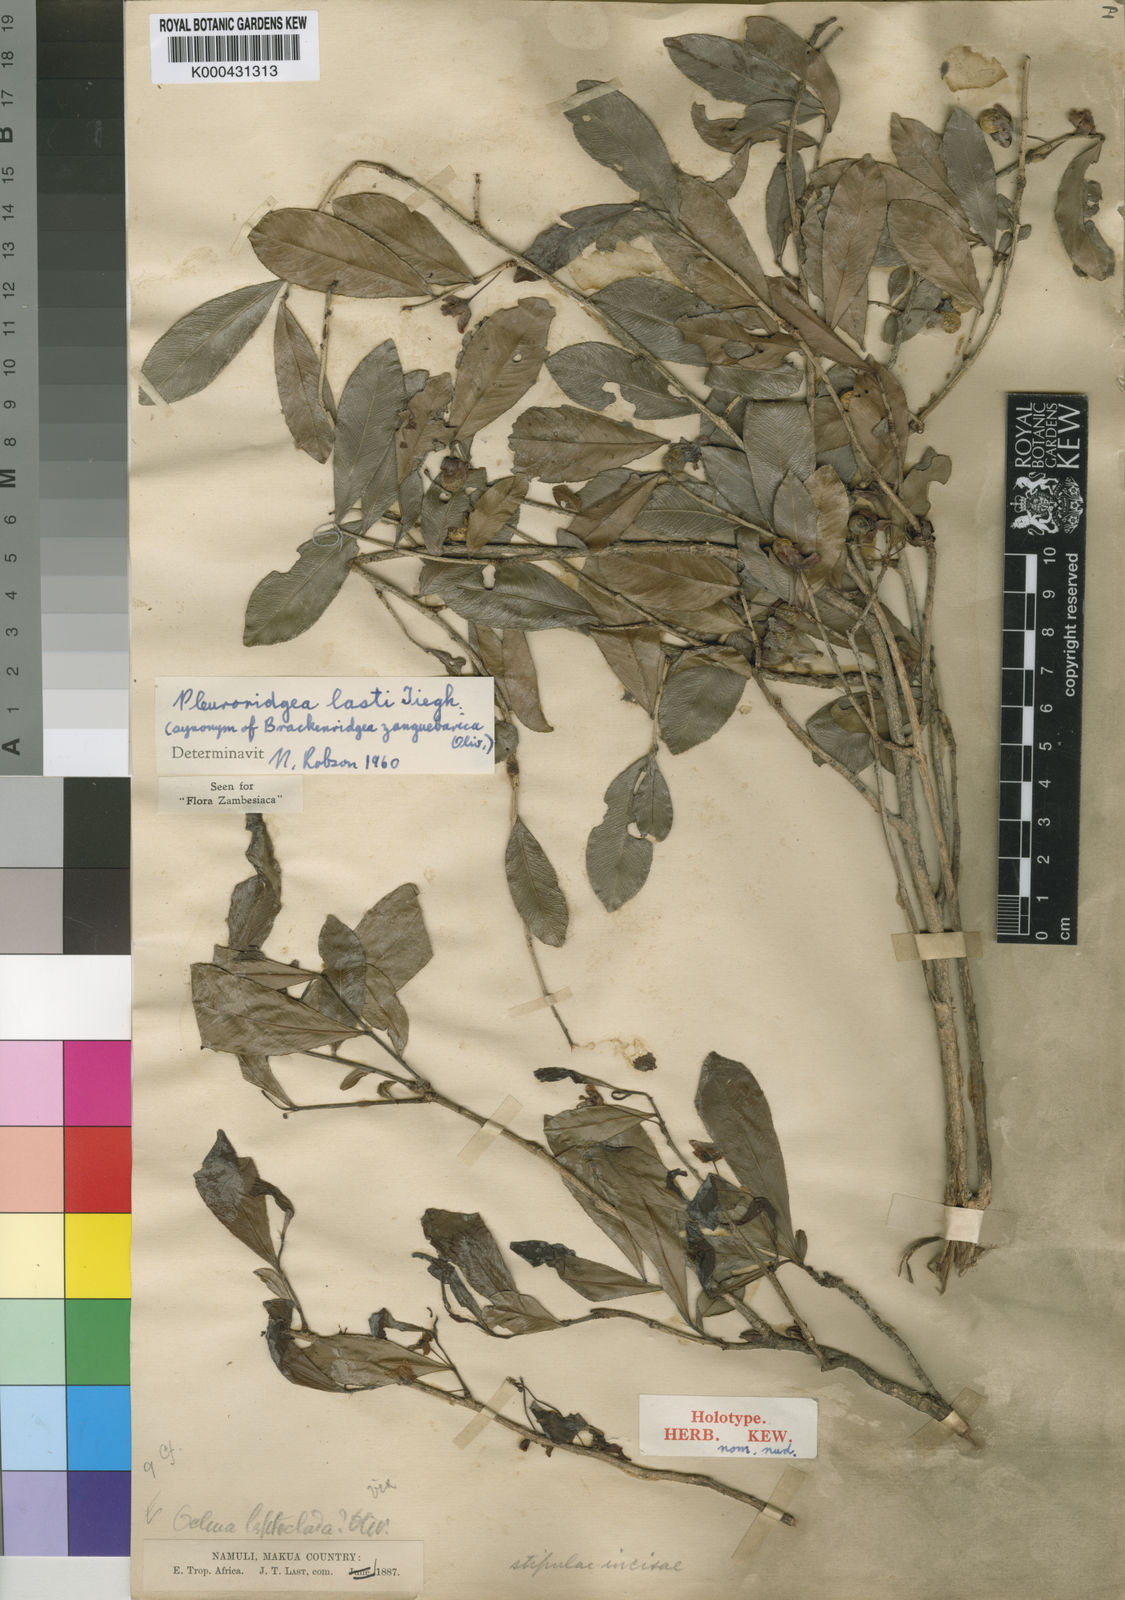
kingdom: Plantae
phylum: Tracheophyta
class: Magnoliopsida
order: Malpighiales
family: Ochnaceae
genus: Brackenridgea
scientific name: Brackenridgea zanguebarica
